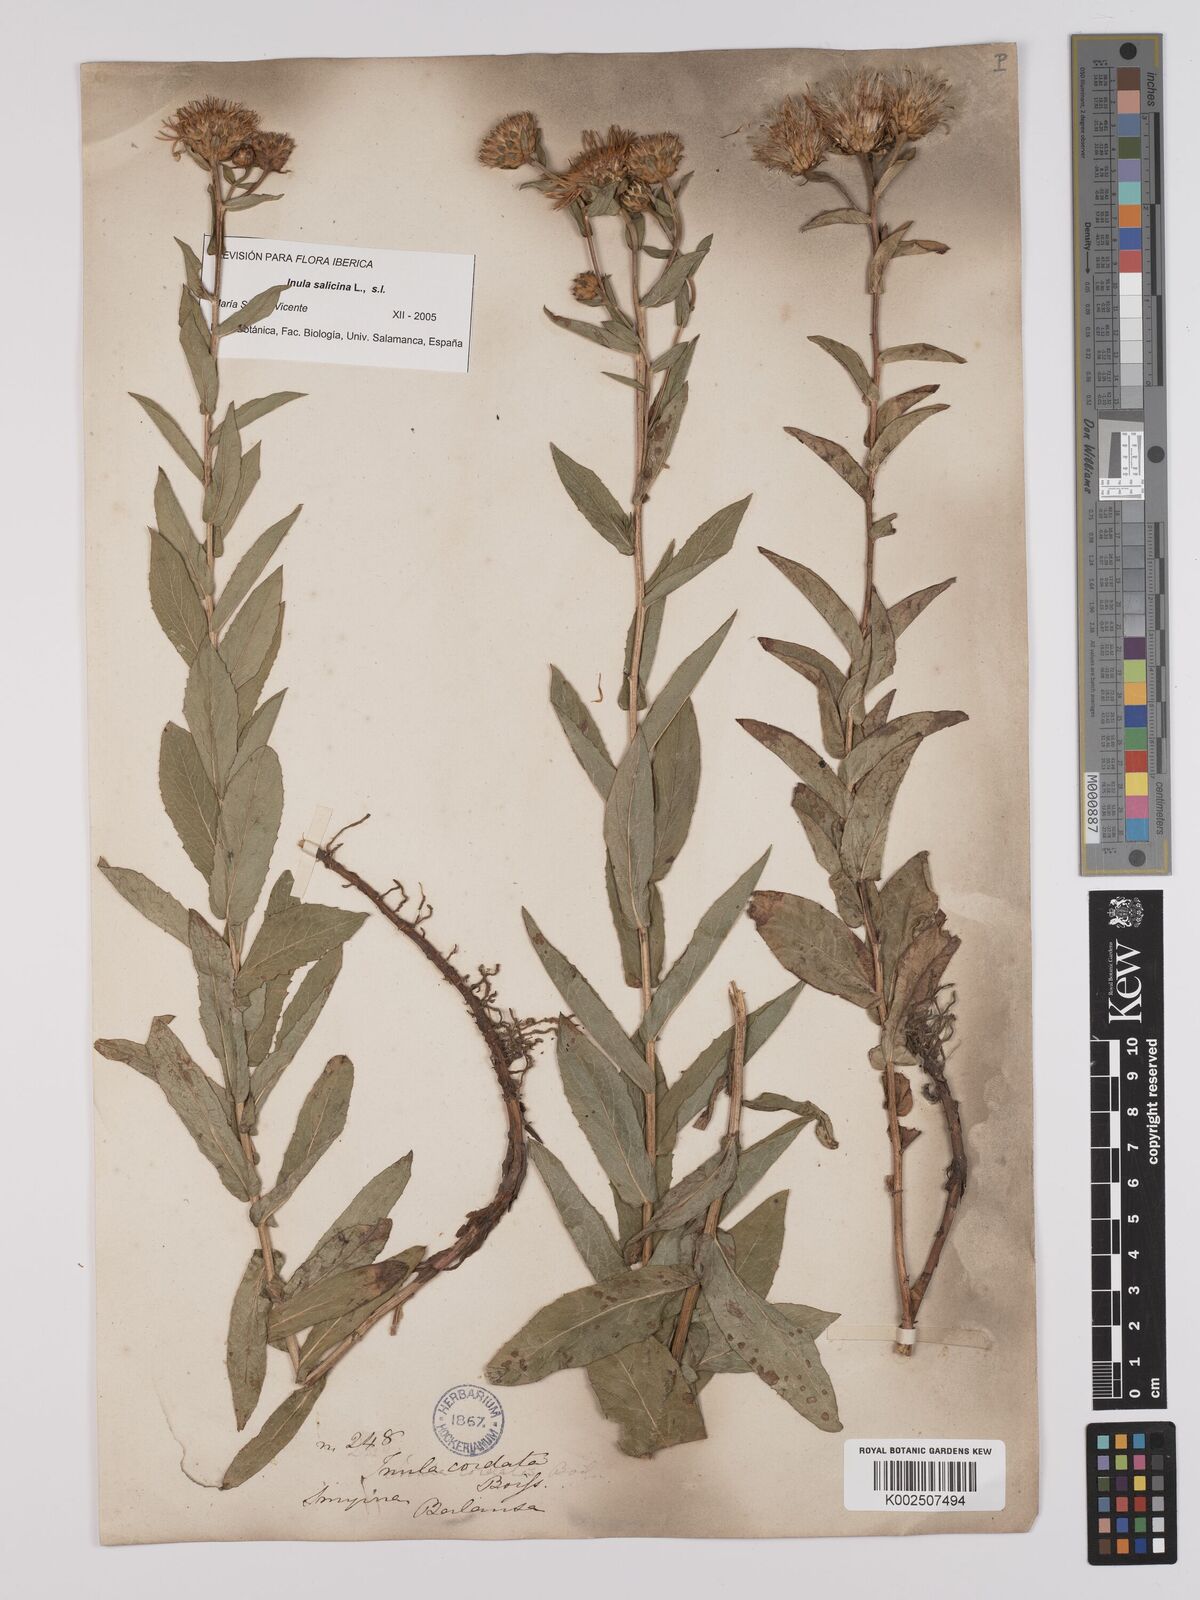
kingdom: Plantae
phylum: Tracheophyta
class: Magnoliopsida
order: Asterales
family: Asteraceae
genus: Pentanema
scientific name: Pentanema salicinum
